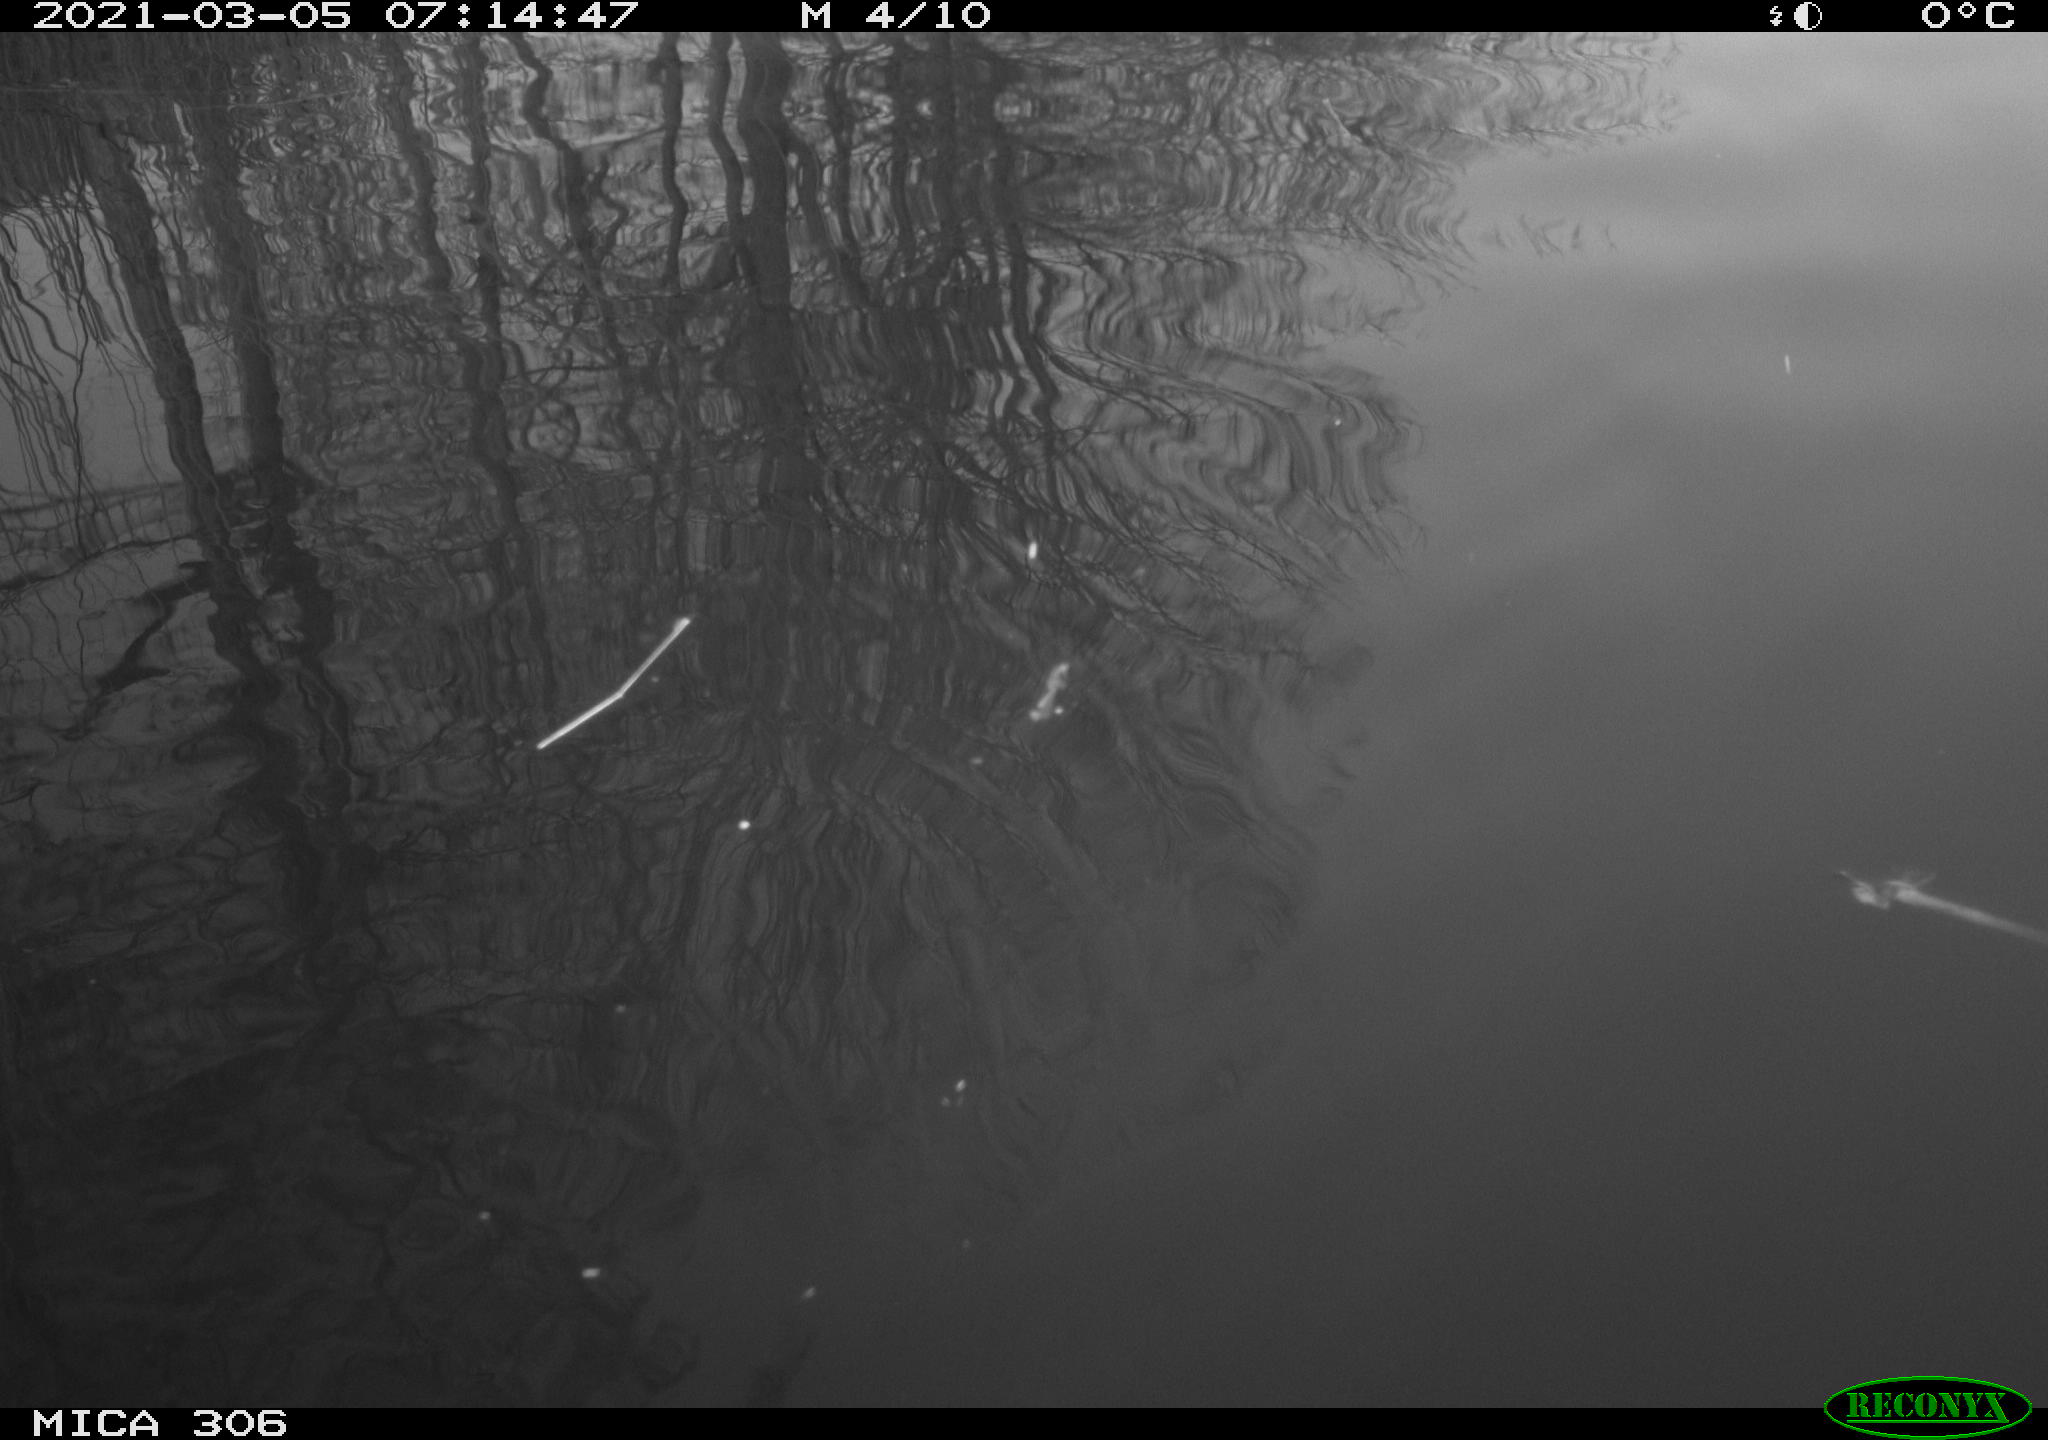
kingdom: Animalia
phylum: Chordata
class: Aves
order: Gruiformes
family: Rallidae
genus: Gallinula
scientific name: Gallinula chloropus
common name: Common moorhen
